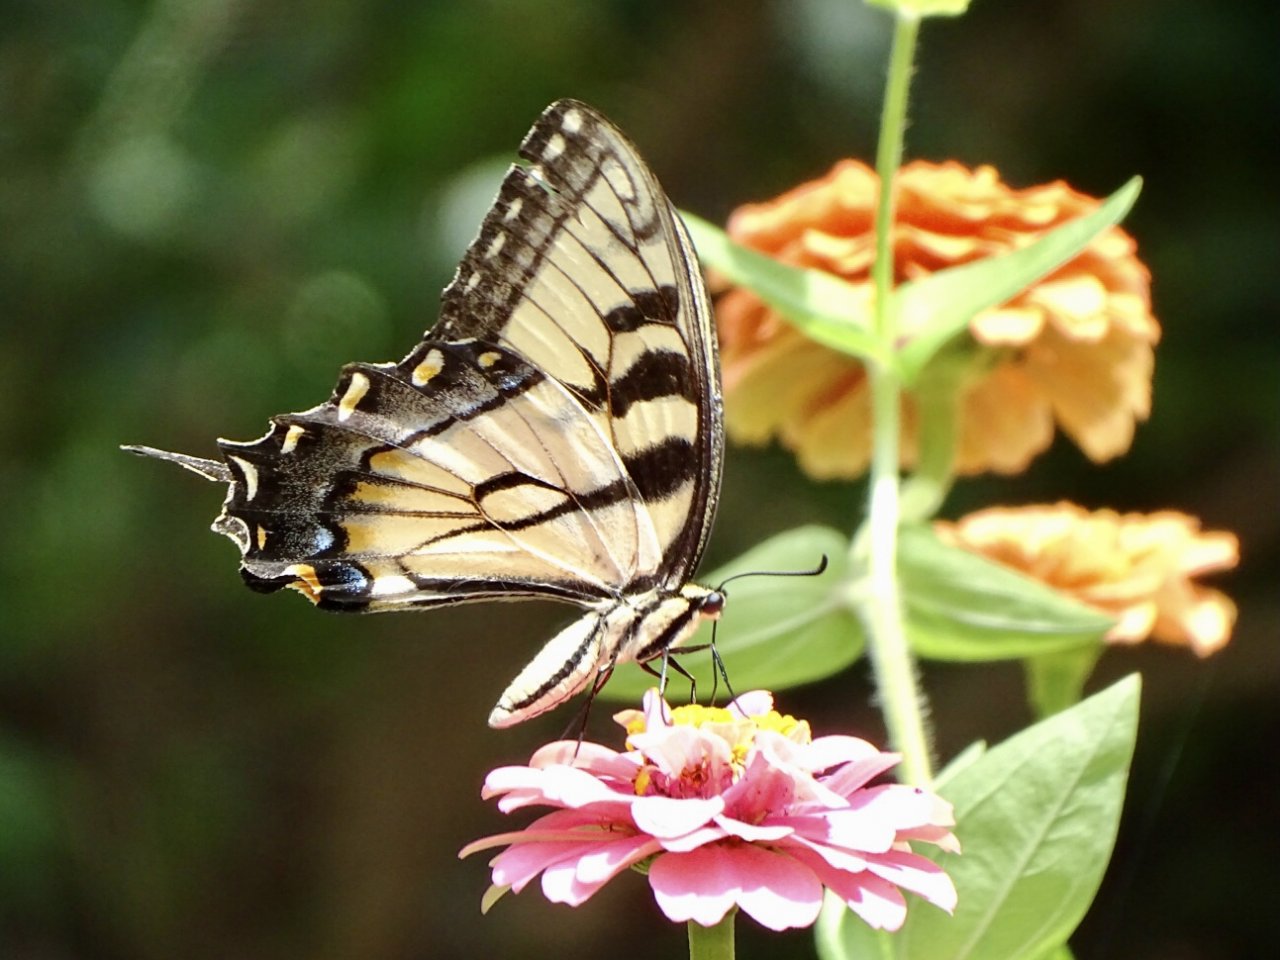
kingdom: Animalia
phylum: Arthropoda
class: Insecta
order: Lepidoptera
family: Papilionidae
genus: Pterourus
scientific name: Pterourus glaucus
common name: Eastern Tiger Swallowtail
